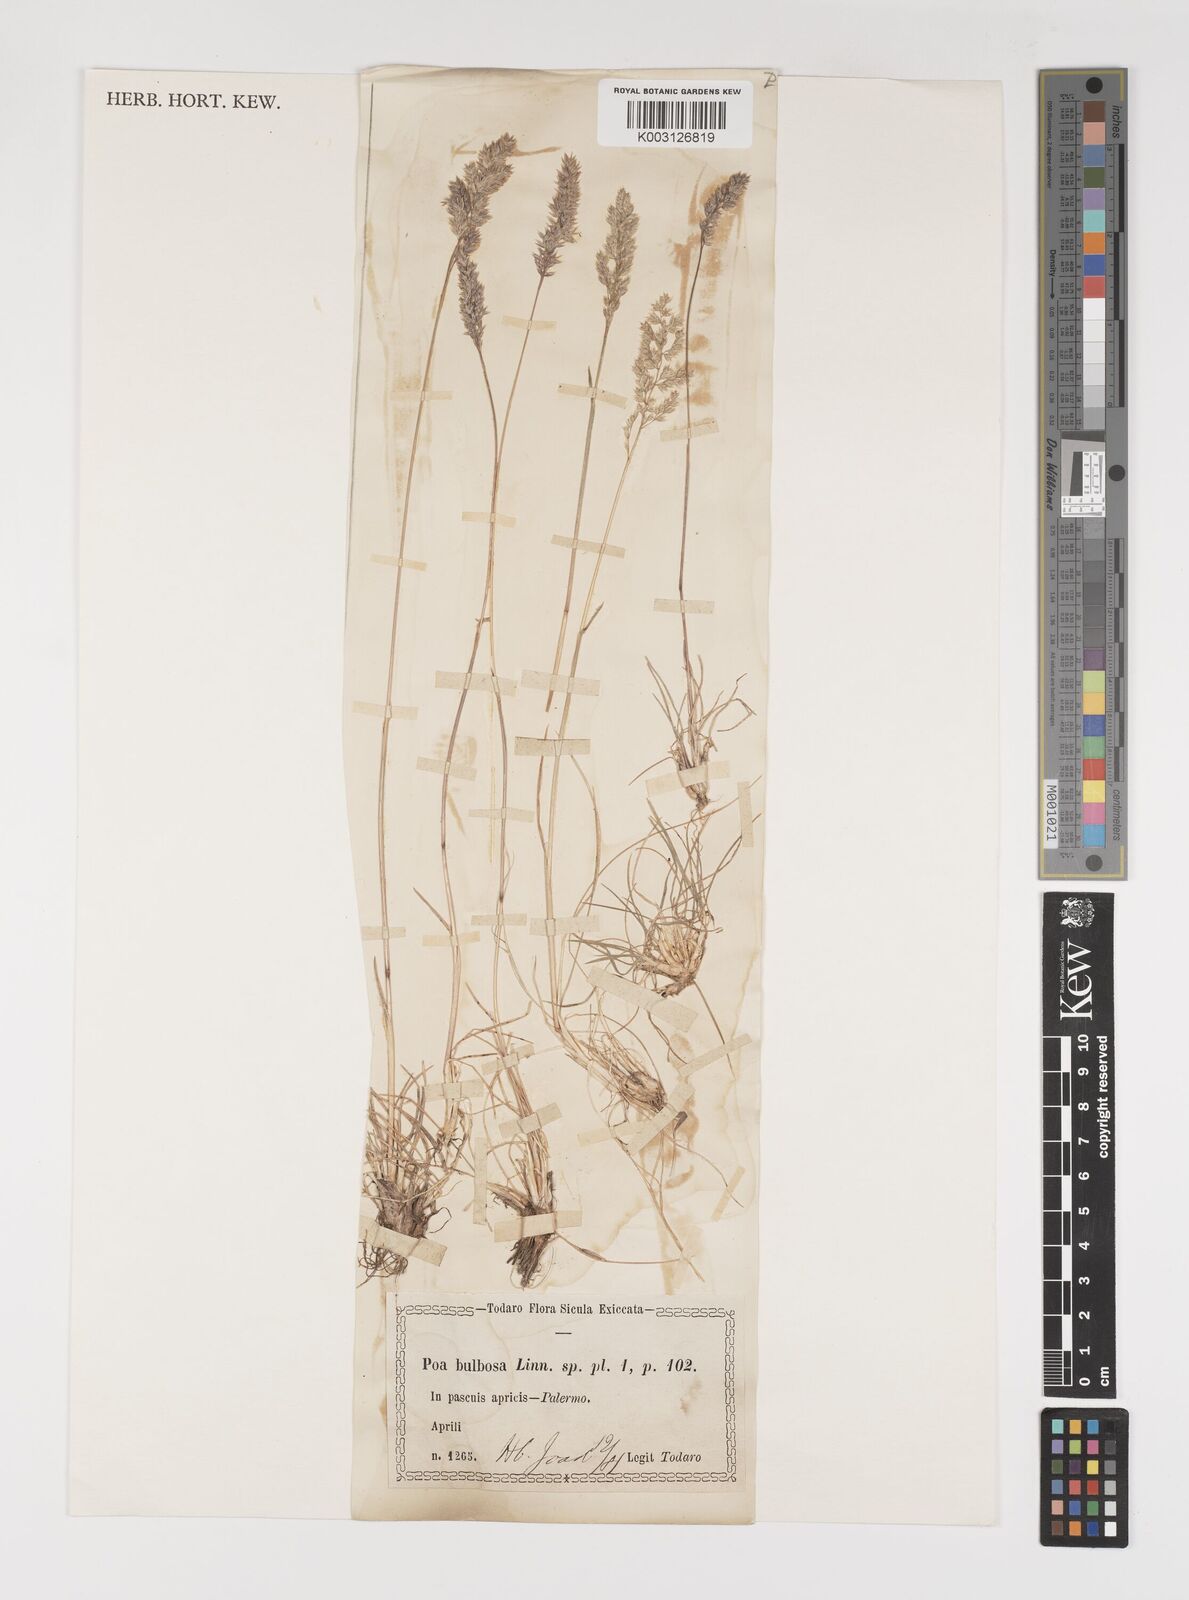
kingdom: Plantae
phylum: Tracheophyta
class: Liliopsida
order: Poales
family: Poaceae
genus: Poa
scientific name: Poa bulbosa
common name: Bulbous bluegrass
